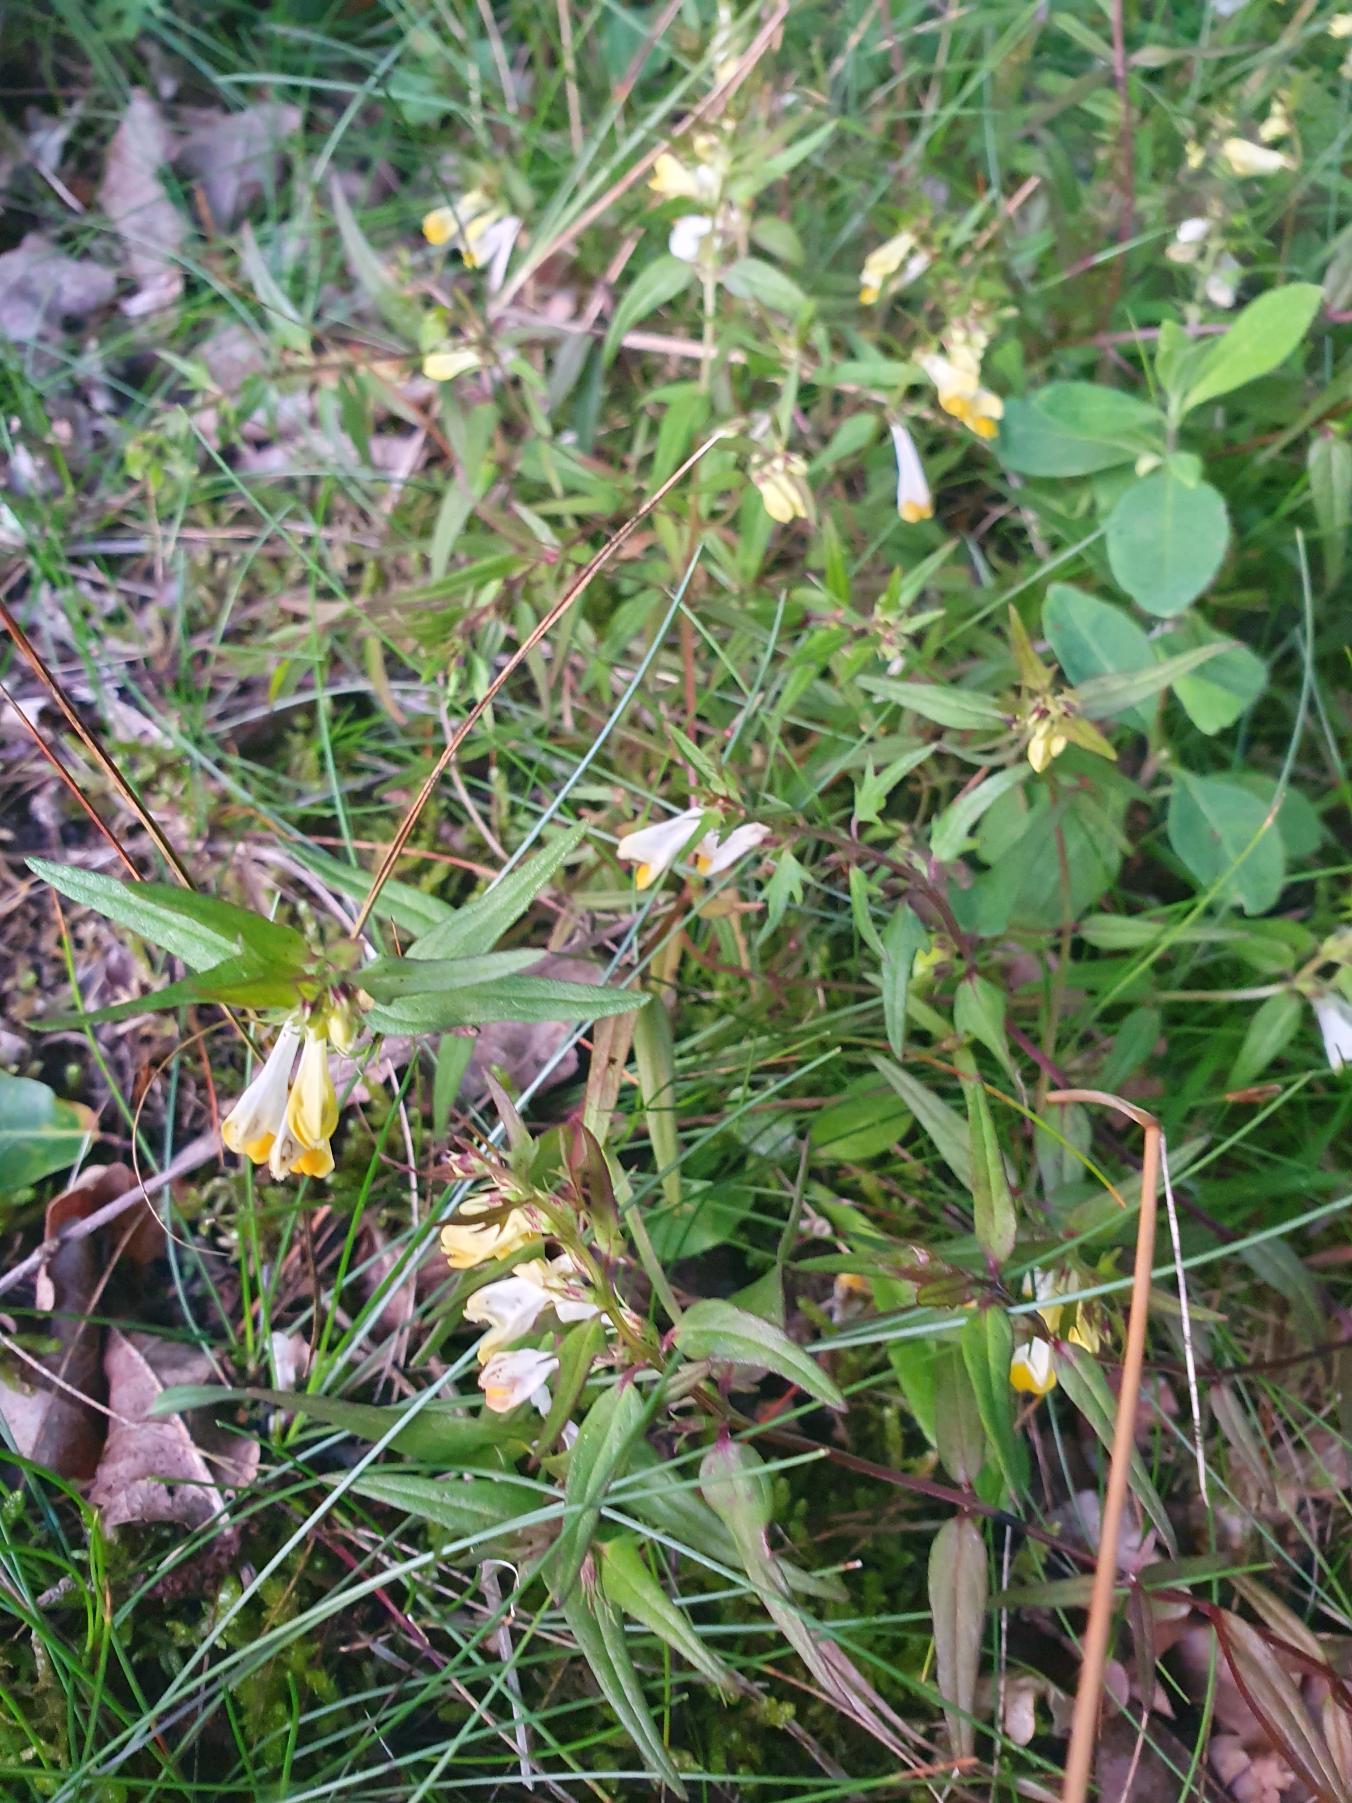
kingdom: Plantae
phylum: Tracheophyta
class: Magnoliopsida
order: Lamiales
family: Orobanchaceae
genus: Melampyrum
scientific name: Melampyrum pratense
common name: Almindelig kohvede
